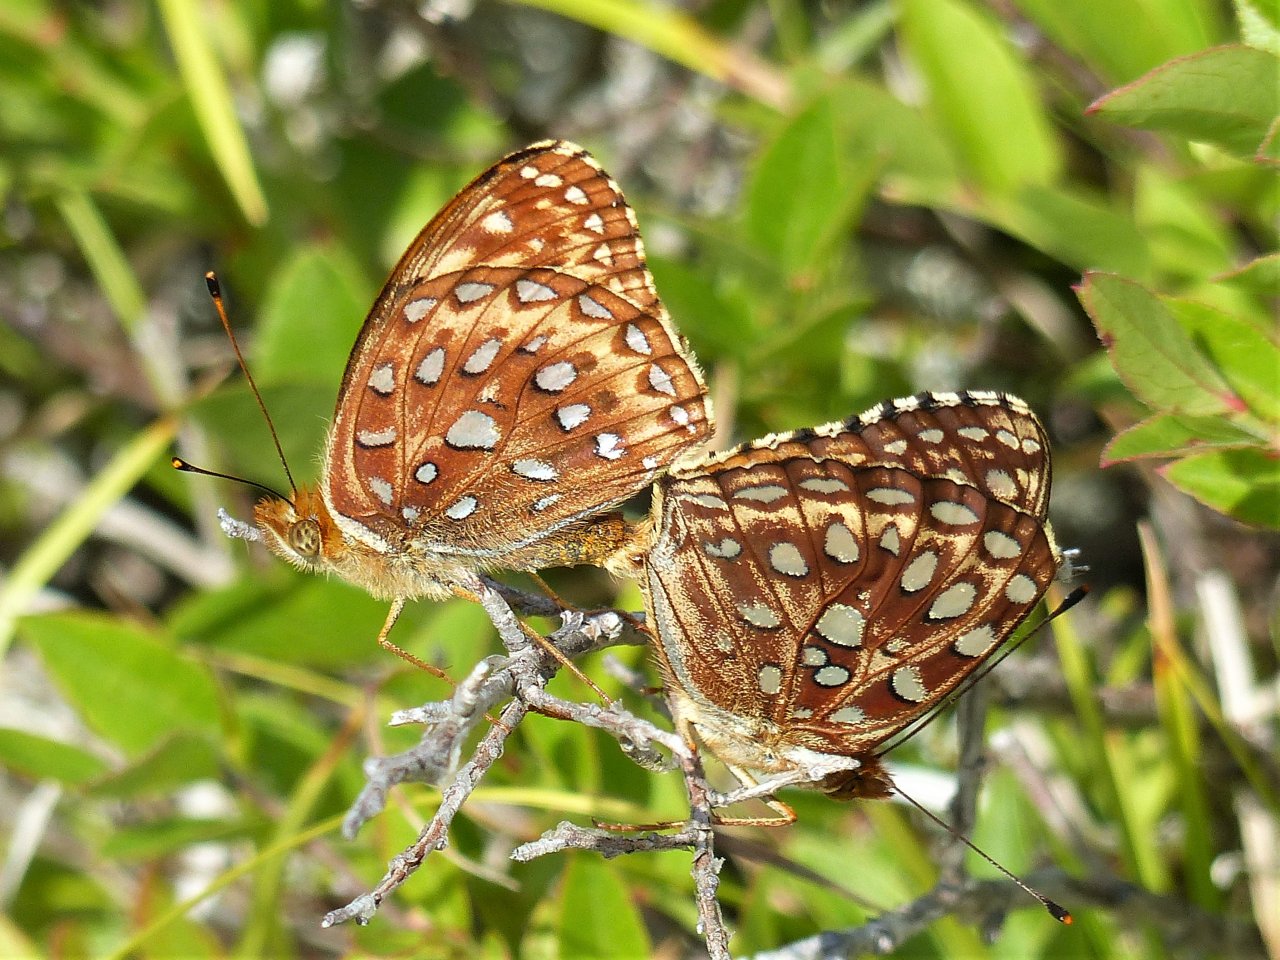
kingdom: Animalia
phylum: Arthropoda
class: Insecta
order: Lepidoptera
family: Nymphalidae
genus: Speyeria
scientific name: Speyeria aphrodite
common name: Aphrodite Fritillary
